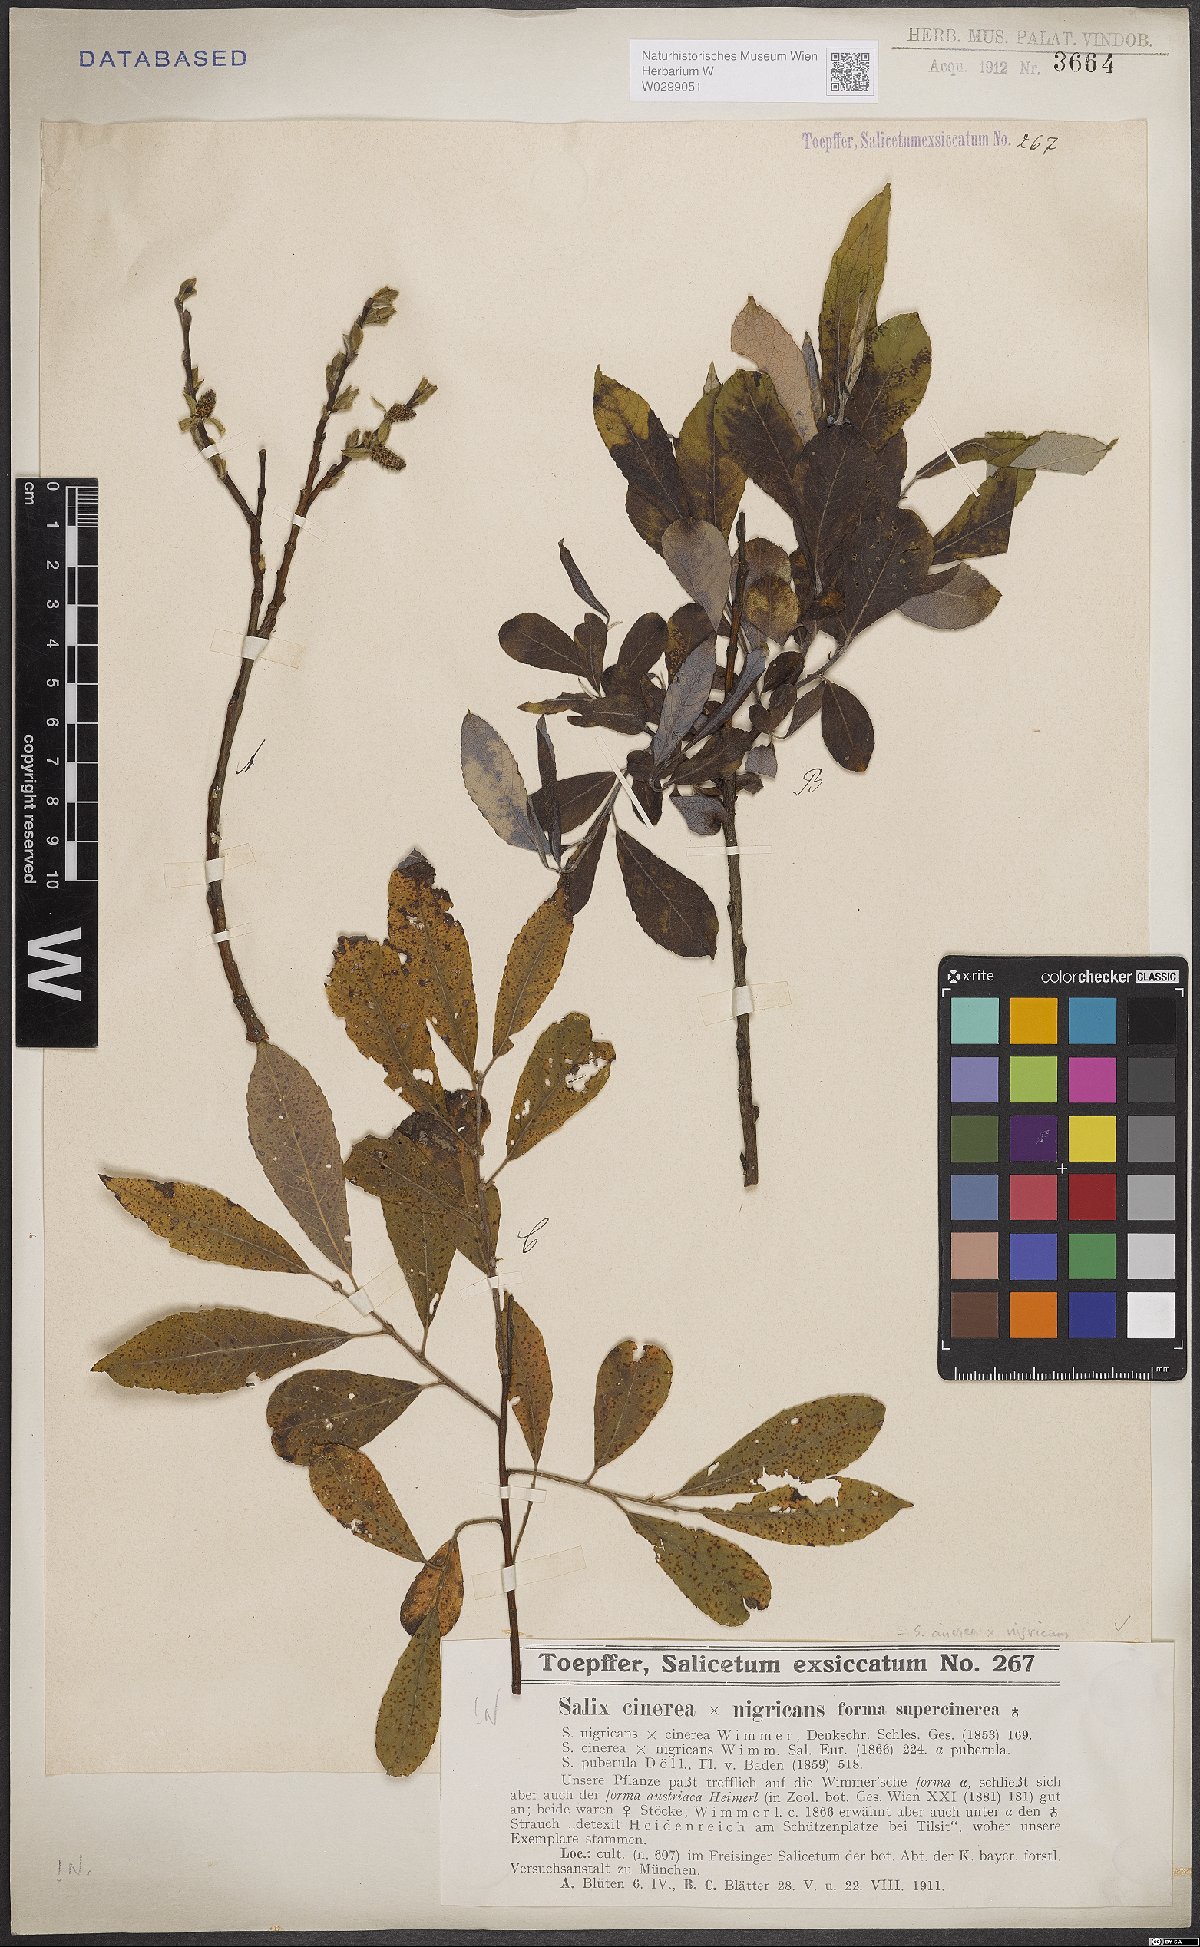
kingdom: Plantae
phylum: Tracheophyta
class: Magnoliopsida
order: Malpighiales
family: Salicaceae
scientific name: Salicaceae
